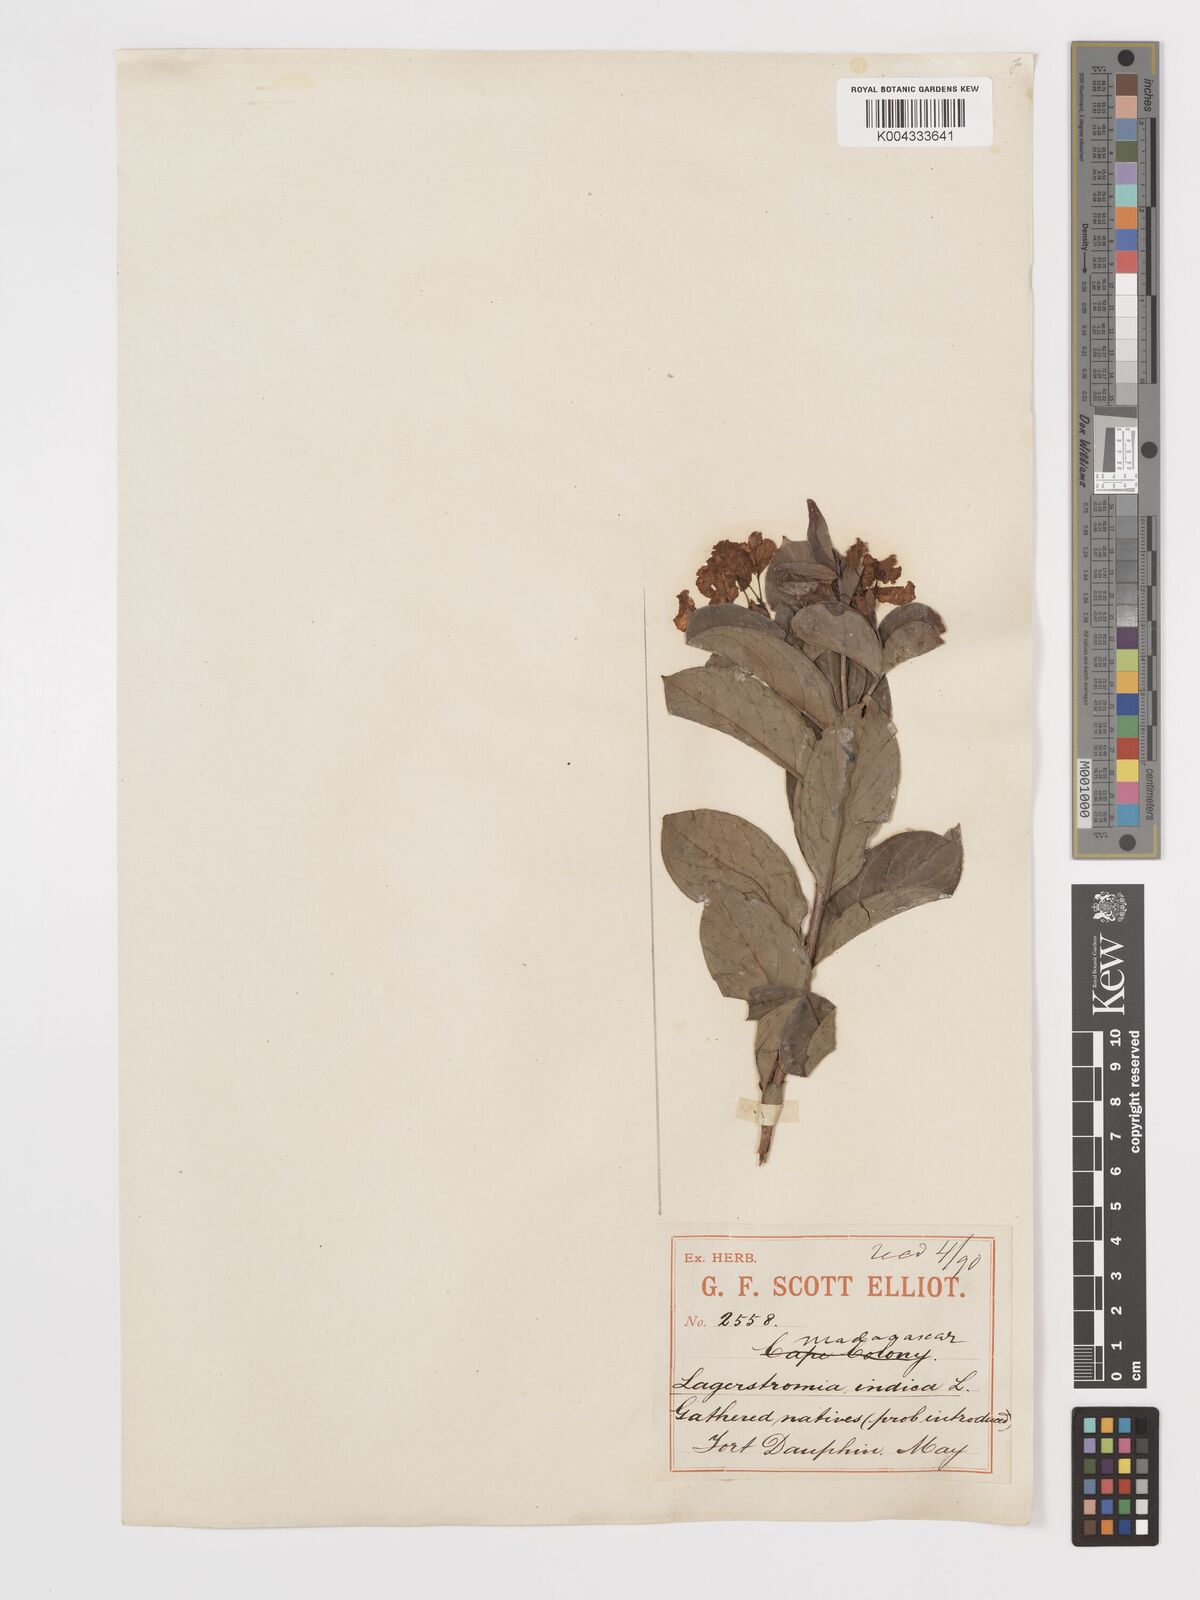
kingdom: Plantae
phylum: Tracheophyta
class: Magnoliopsida
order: Myrtales
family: Lythraceae
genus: Lagerstroemia
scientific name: Lagerstroemia indica
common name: Crape-myrtle
